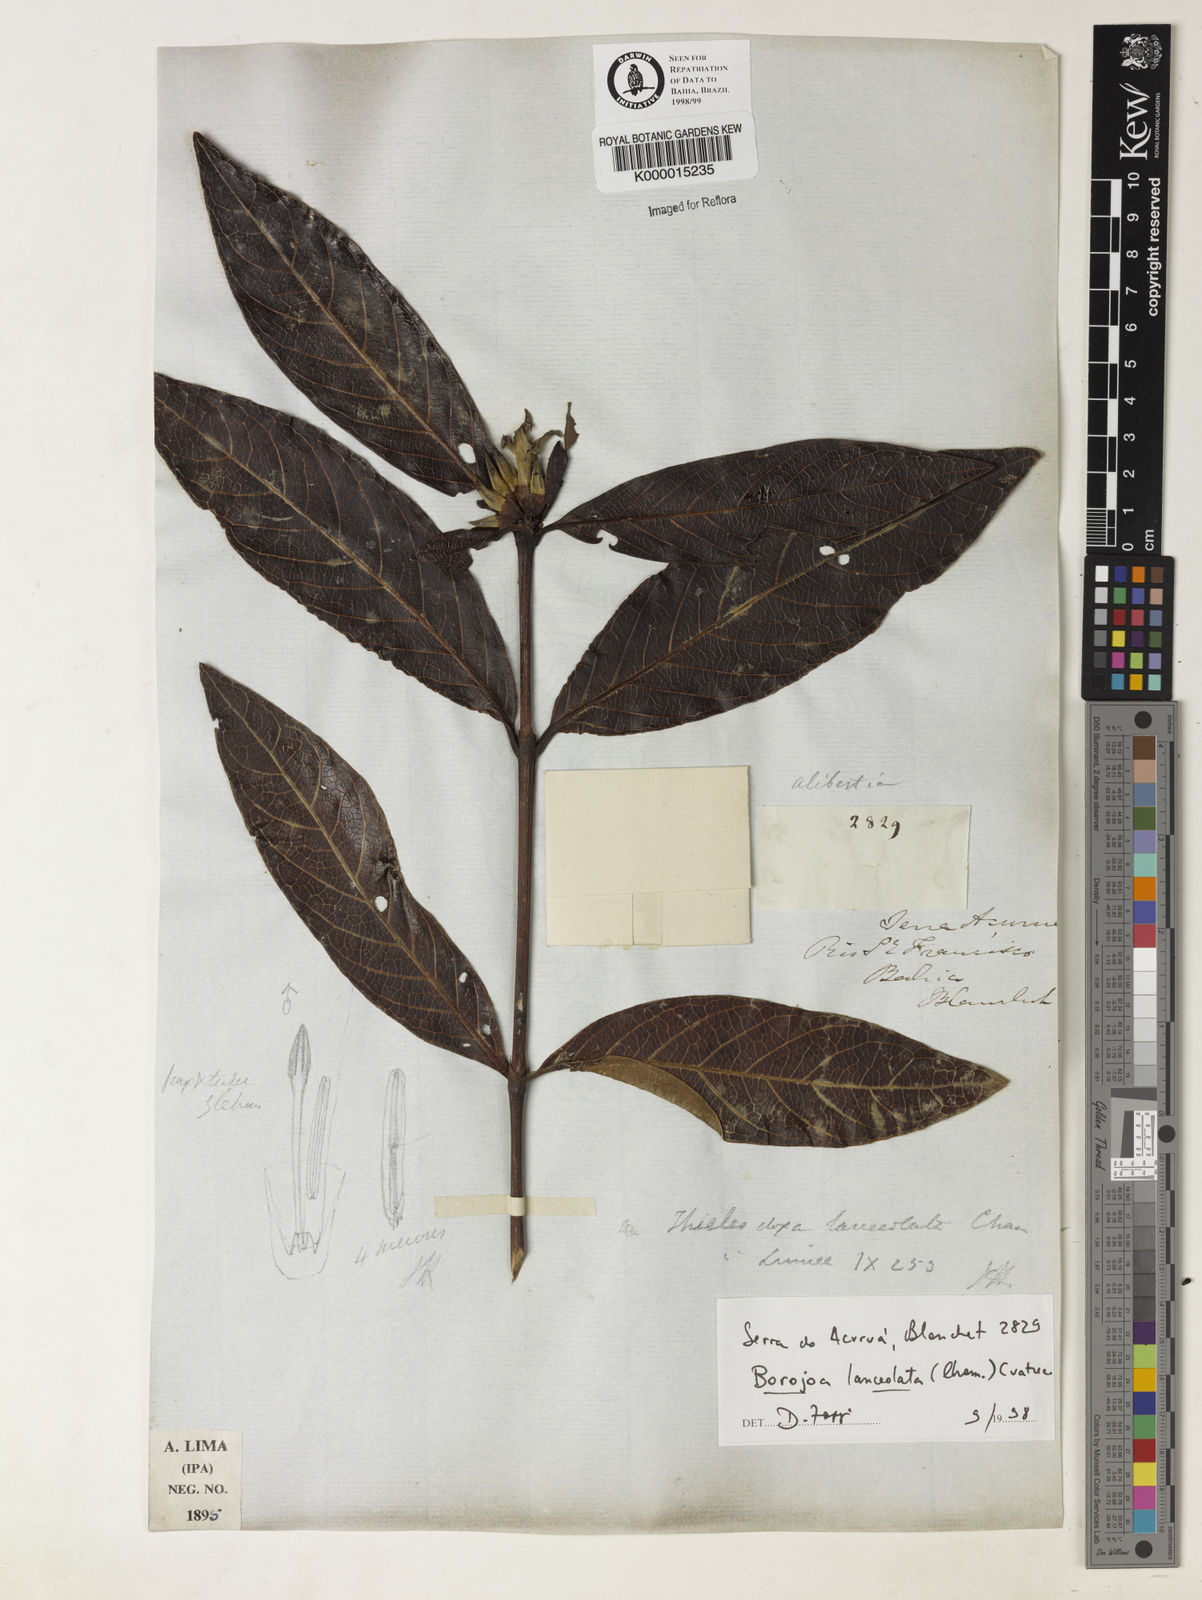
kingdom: Plantae
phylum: Tracheophyta
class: Magnoliopsida
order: Gentianales
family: Rubiaceae
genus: Alibertia
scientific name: Alibertia edulis
